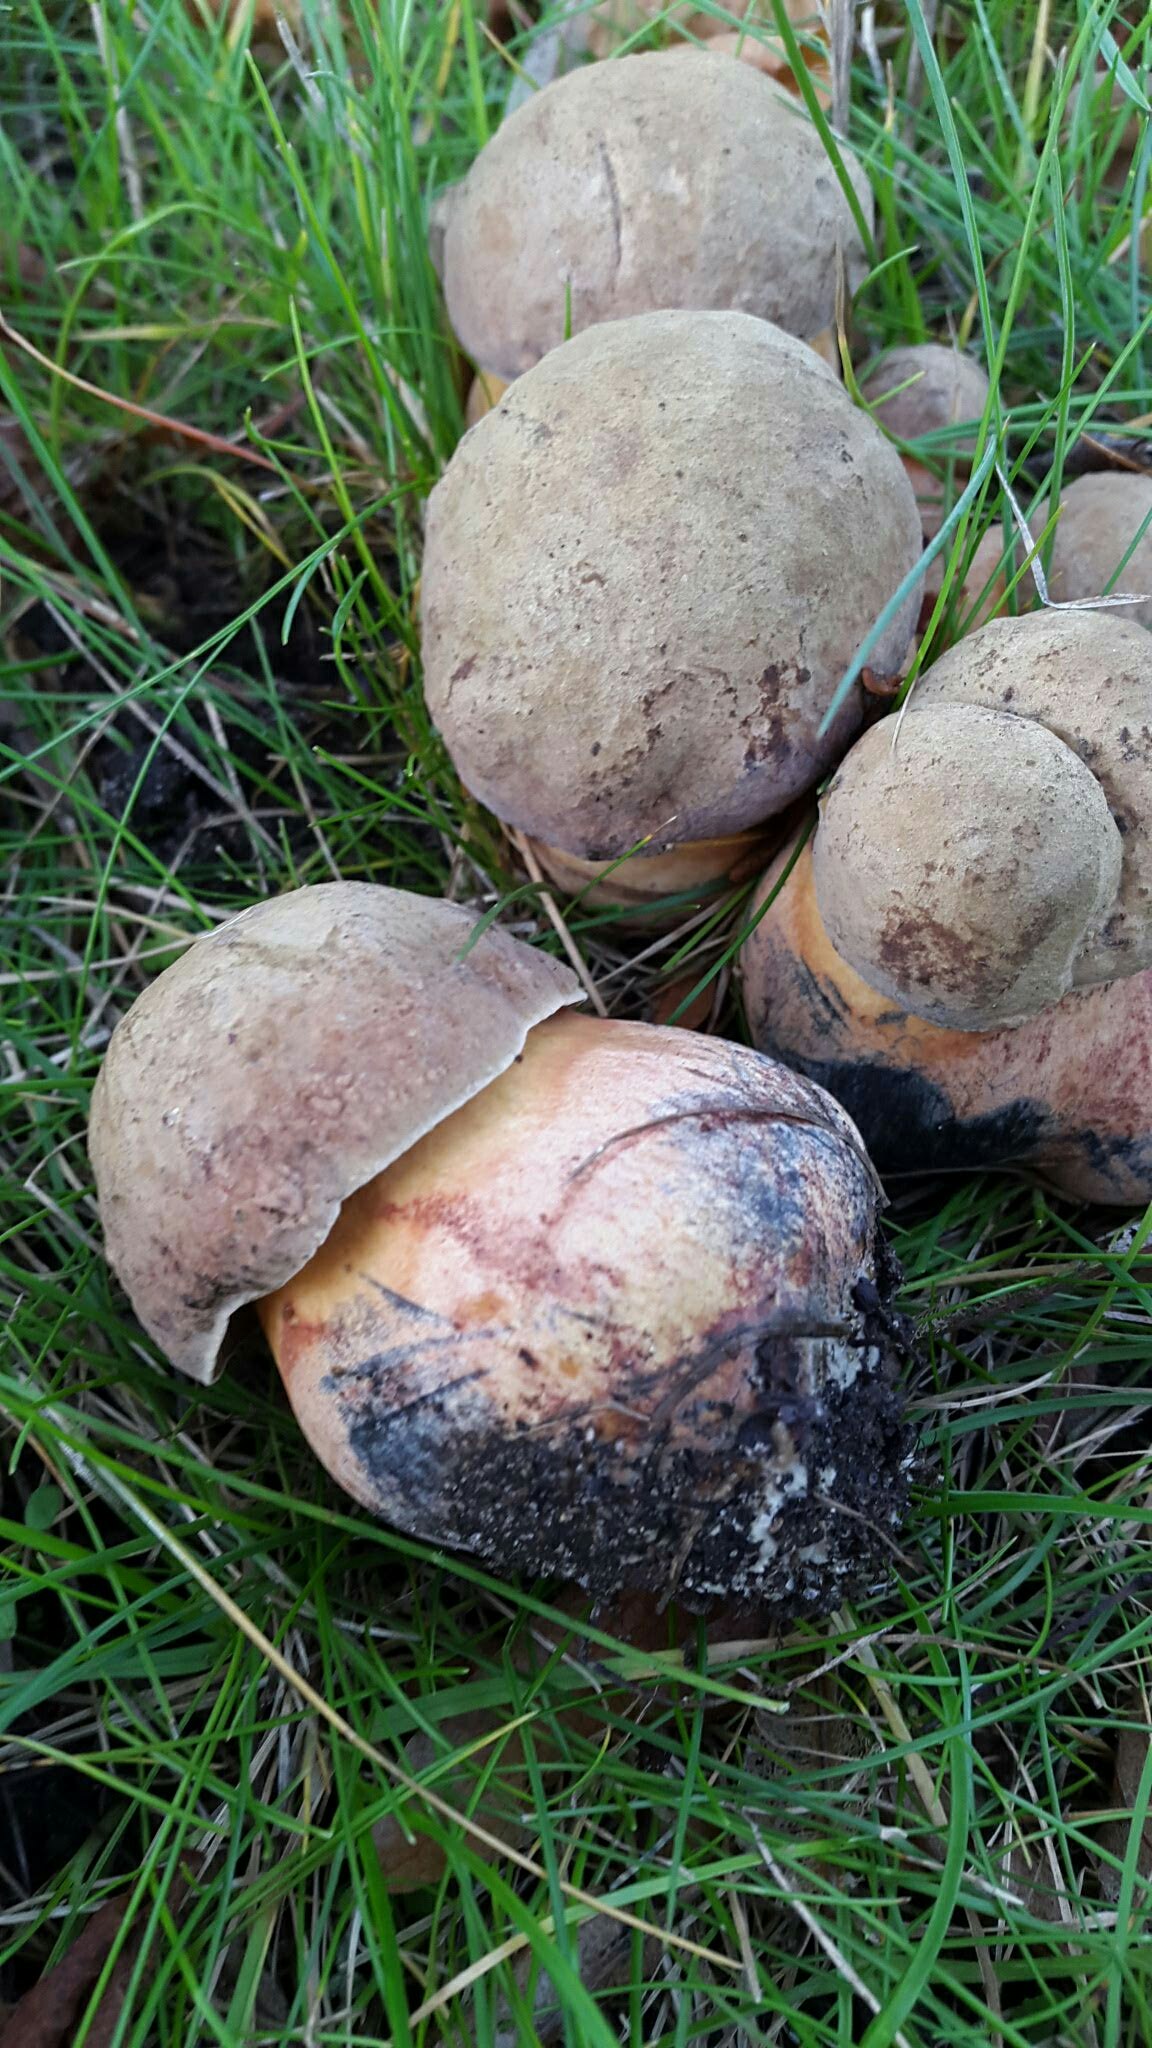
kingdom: Fungi
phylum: Basidiomycota
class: Agaricomycetes
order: Boletales
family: Boletaceae
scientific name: Boletaceae
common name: rørhatfamilien
